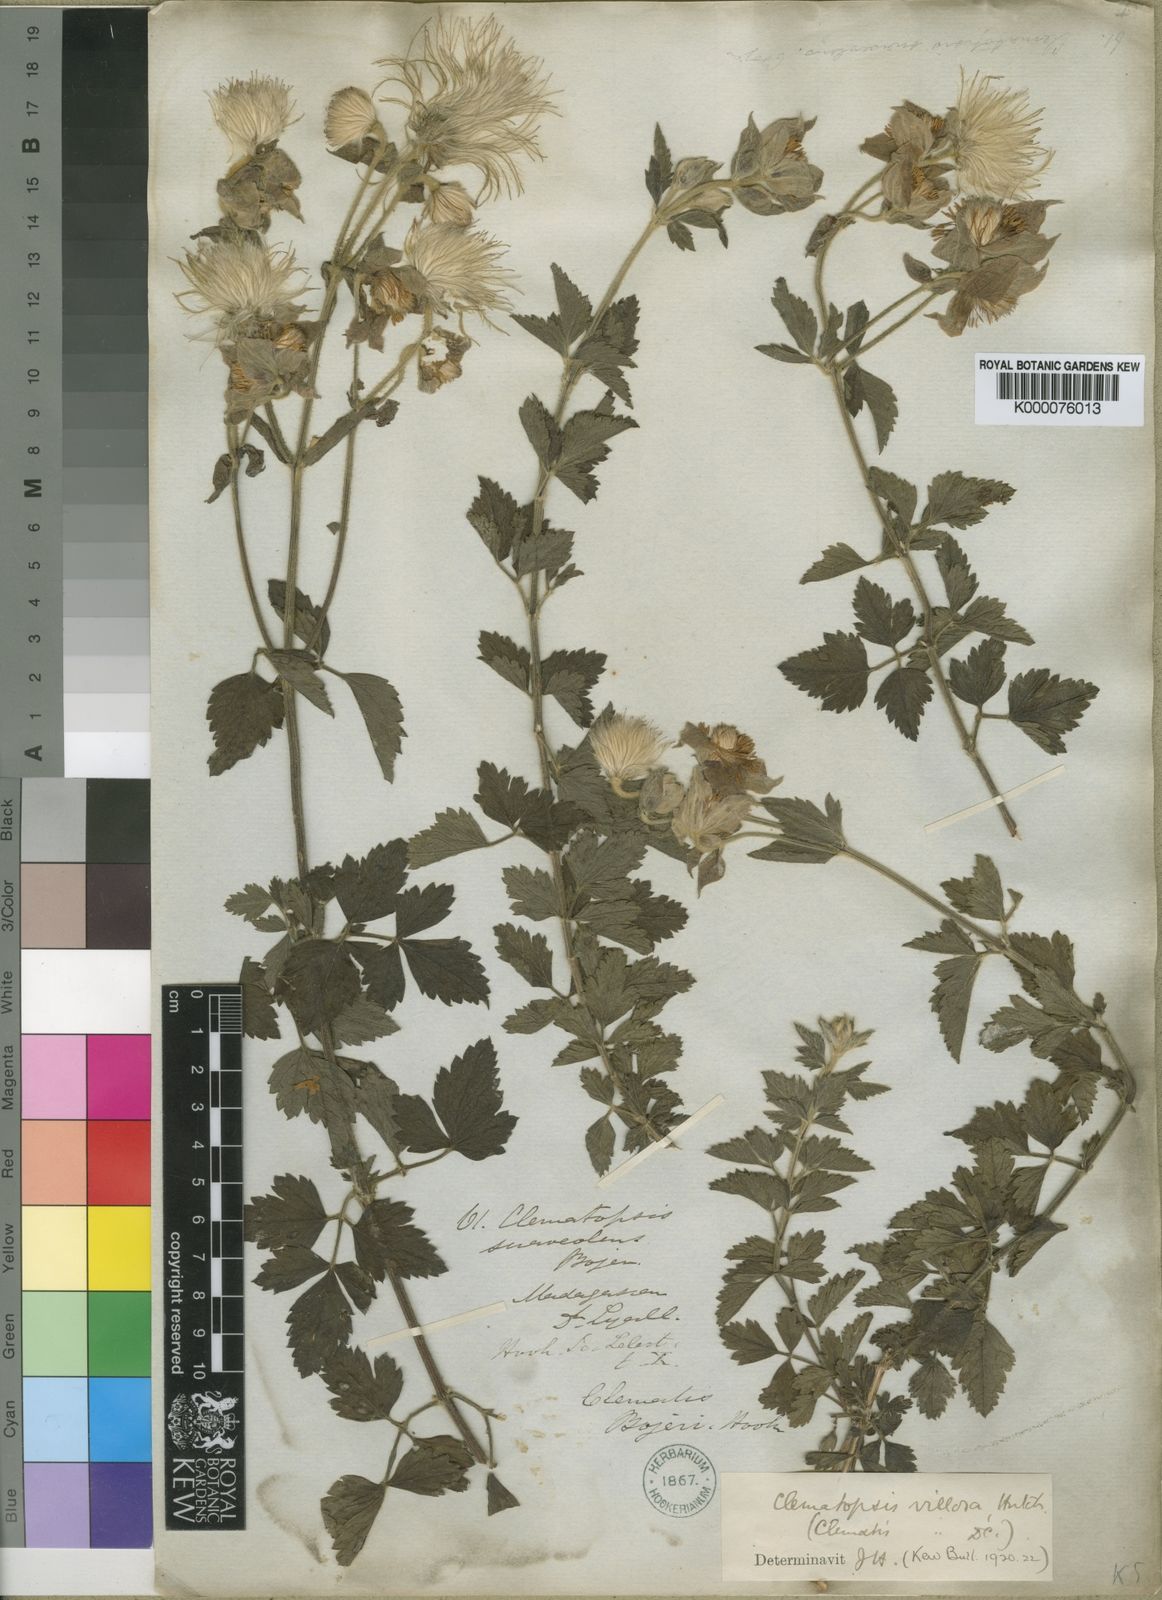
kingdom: Plantae
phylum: Tracheophyta
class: Magnoliopsida
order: Ranunculales
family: Ranunculaceae
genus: Clematis
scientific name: Clematis bojeri
